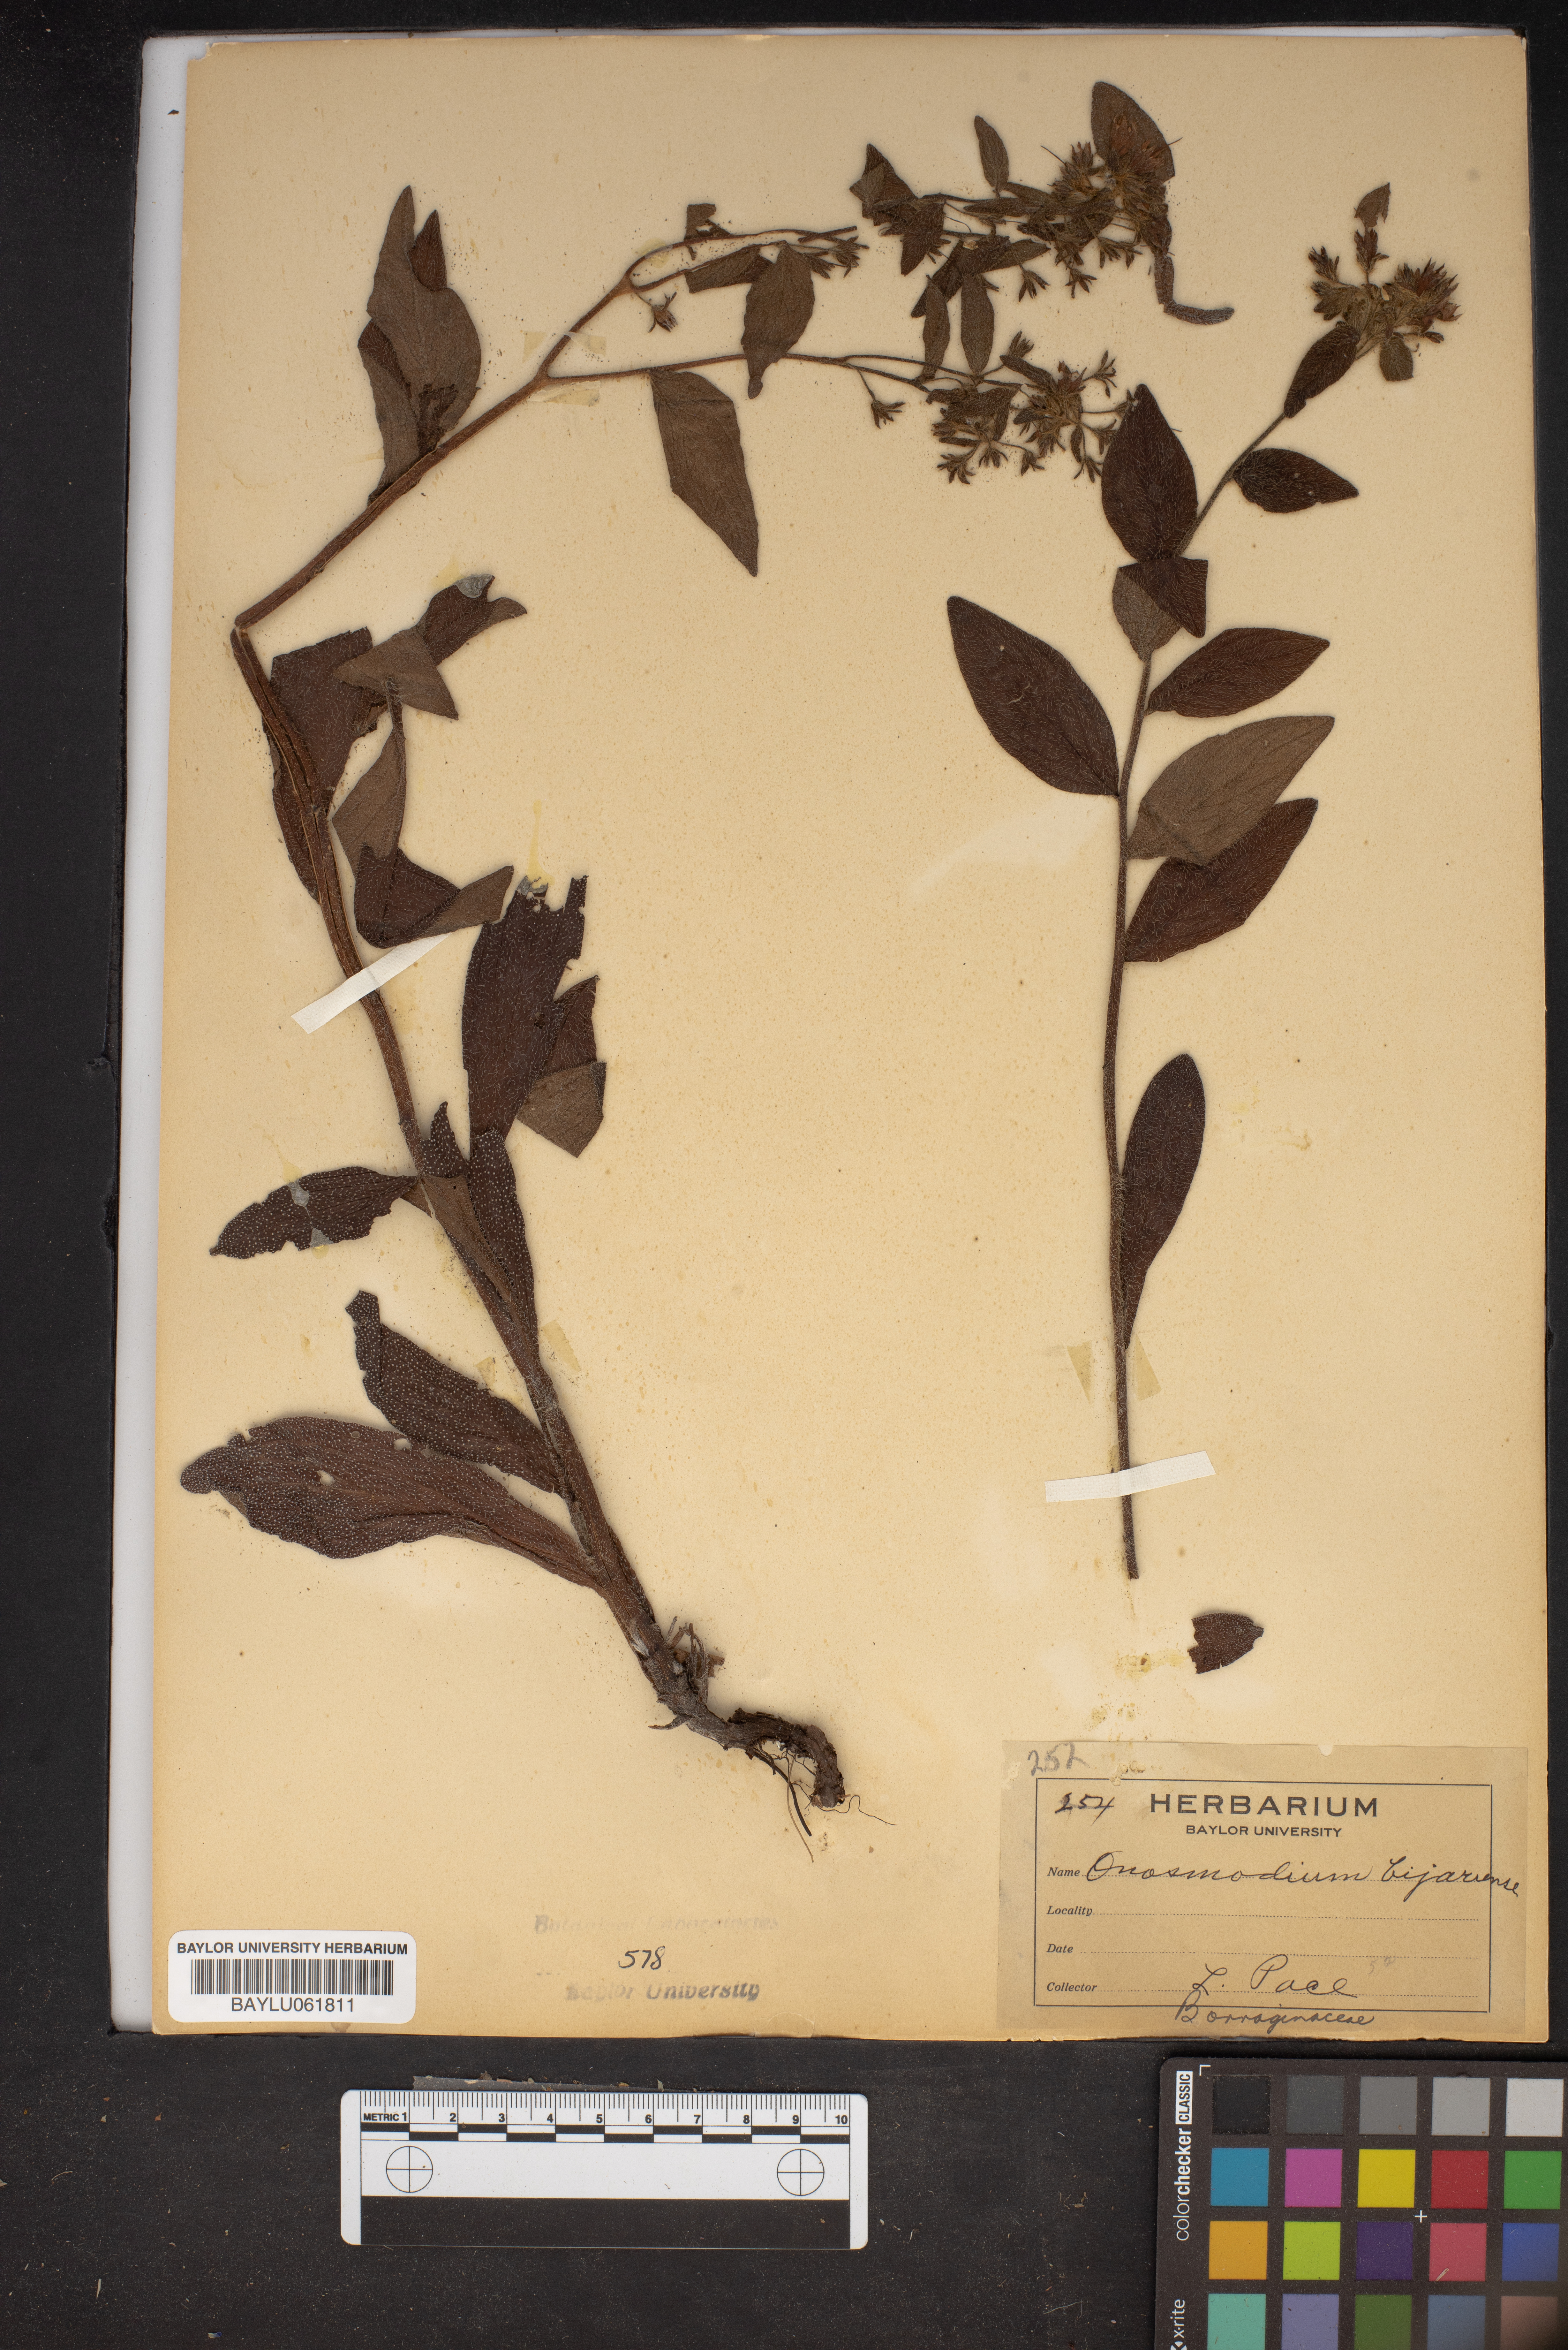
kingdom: Plantae
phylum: Tracheophyta
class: Magnoliopsida
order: Boraginales
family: Boraginaceae
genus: Lithospermum
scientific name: Lithospermum molle
